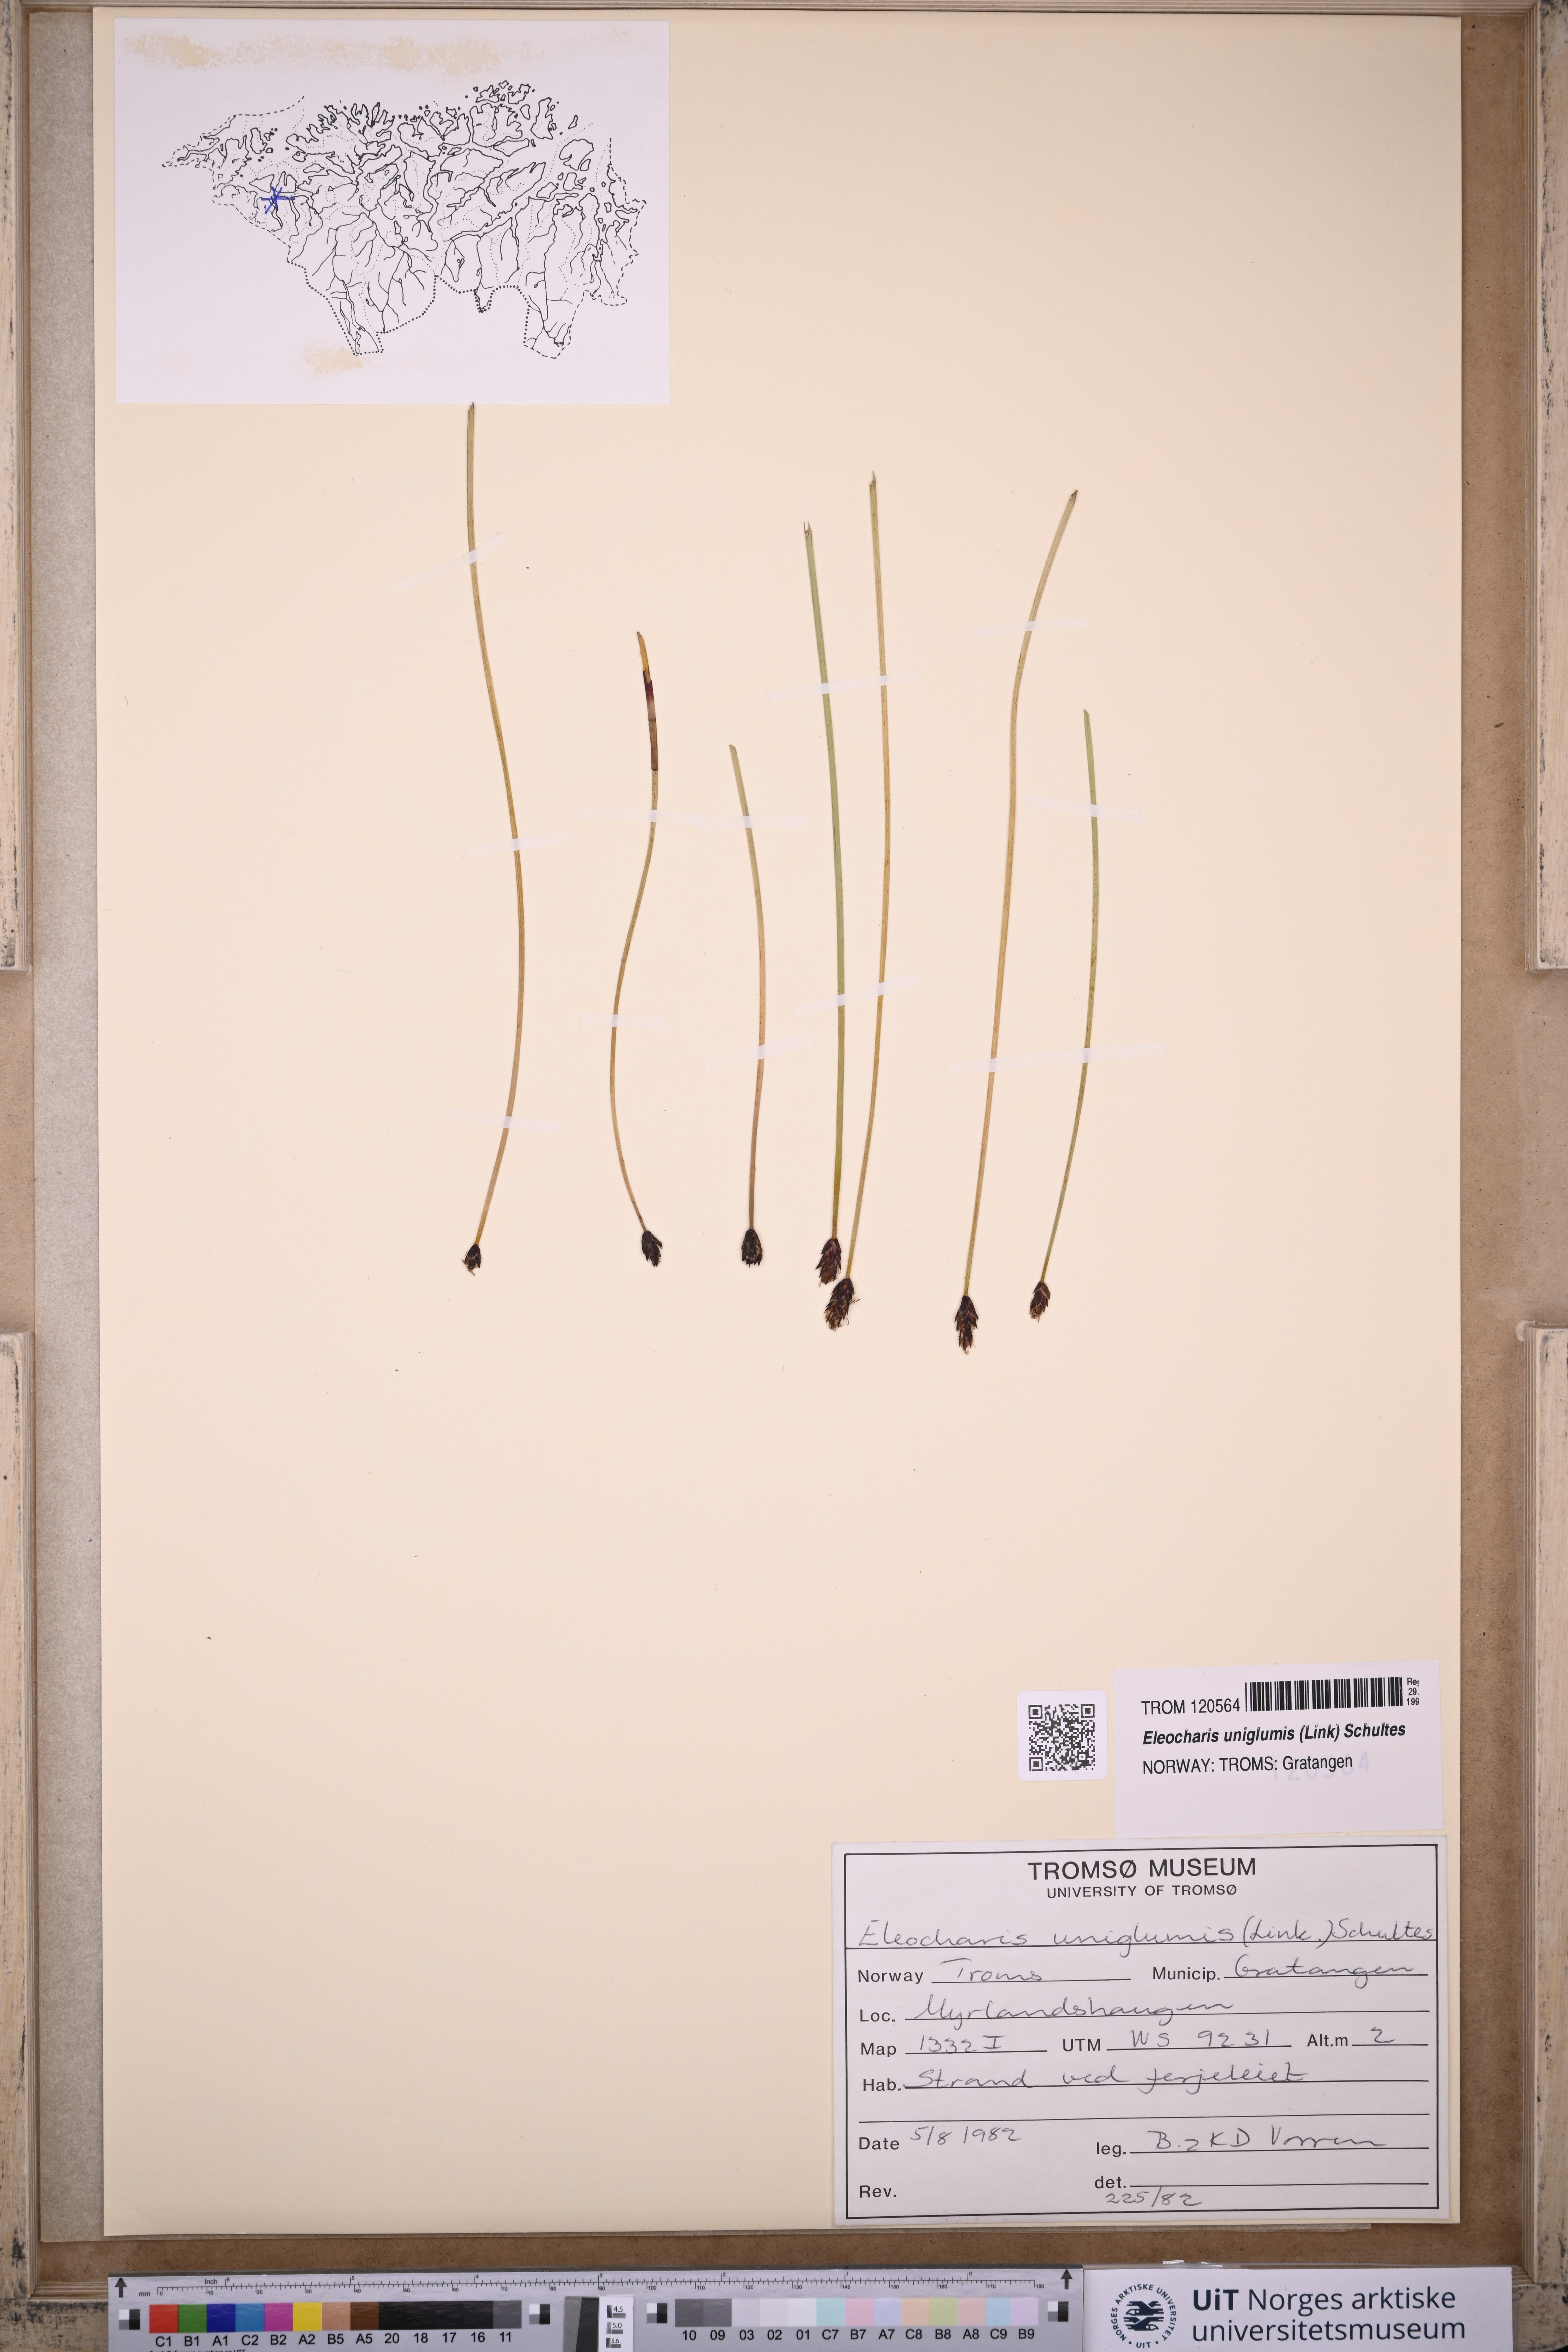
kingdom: Plantae
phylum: Tracheophyta
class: Liliopsida
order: Poales
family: Cyperaceae
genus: Eleocharis
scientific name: Eleocharis uniglumis
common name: Slender spike-rush
